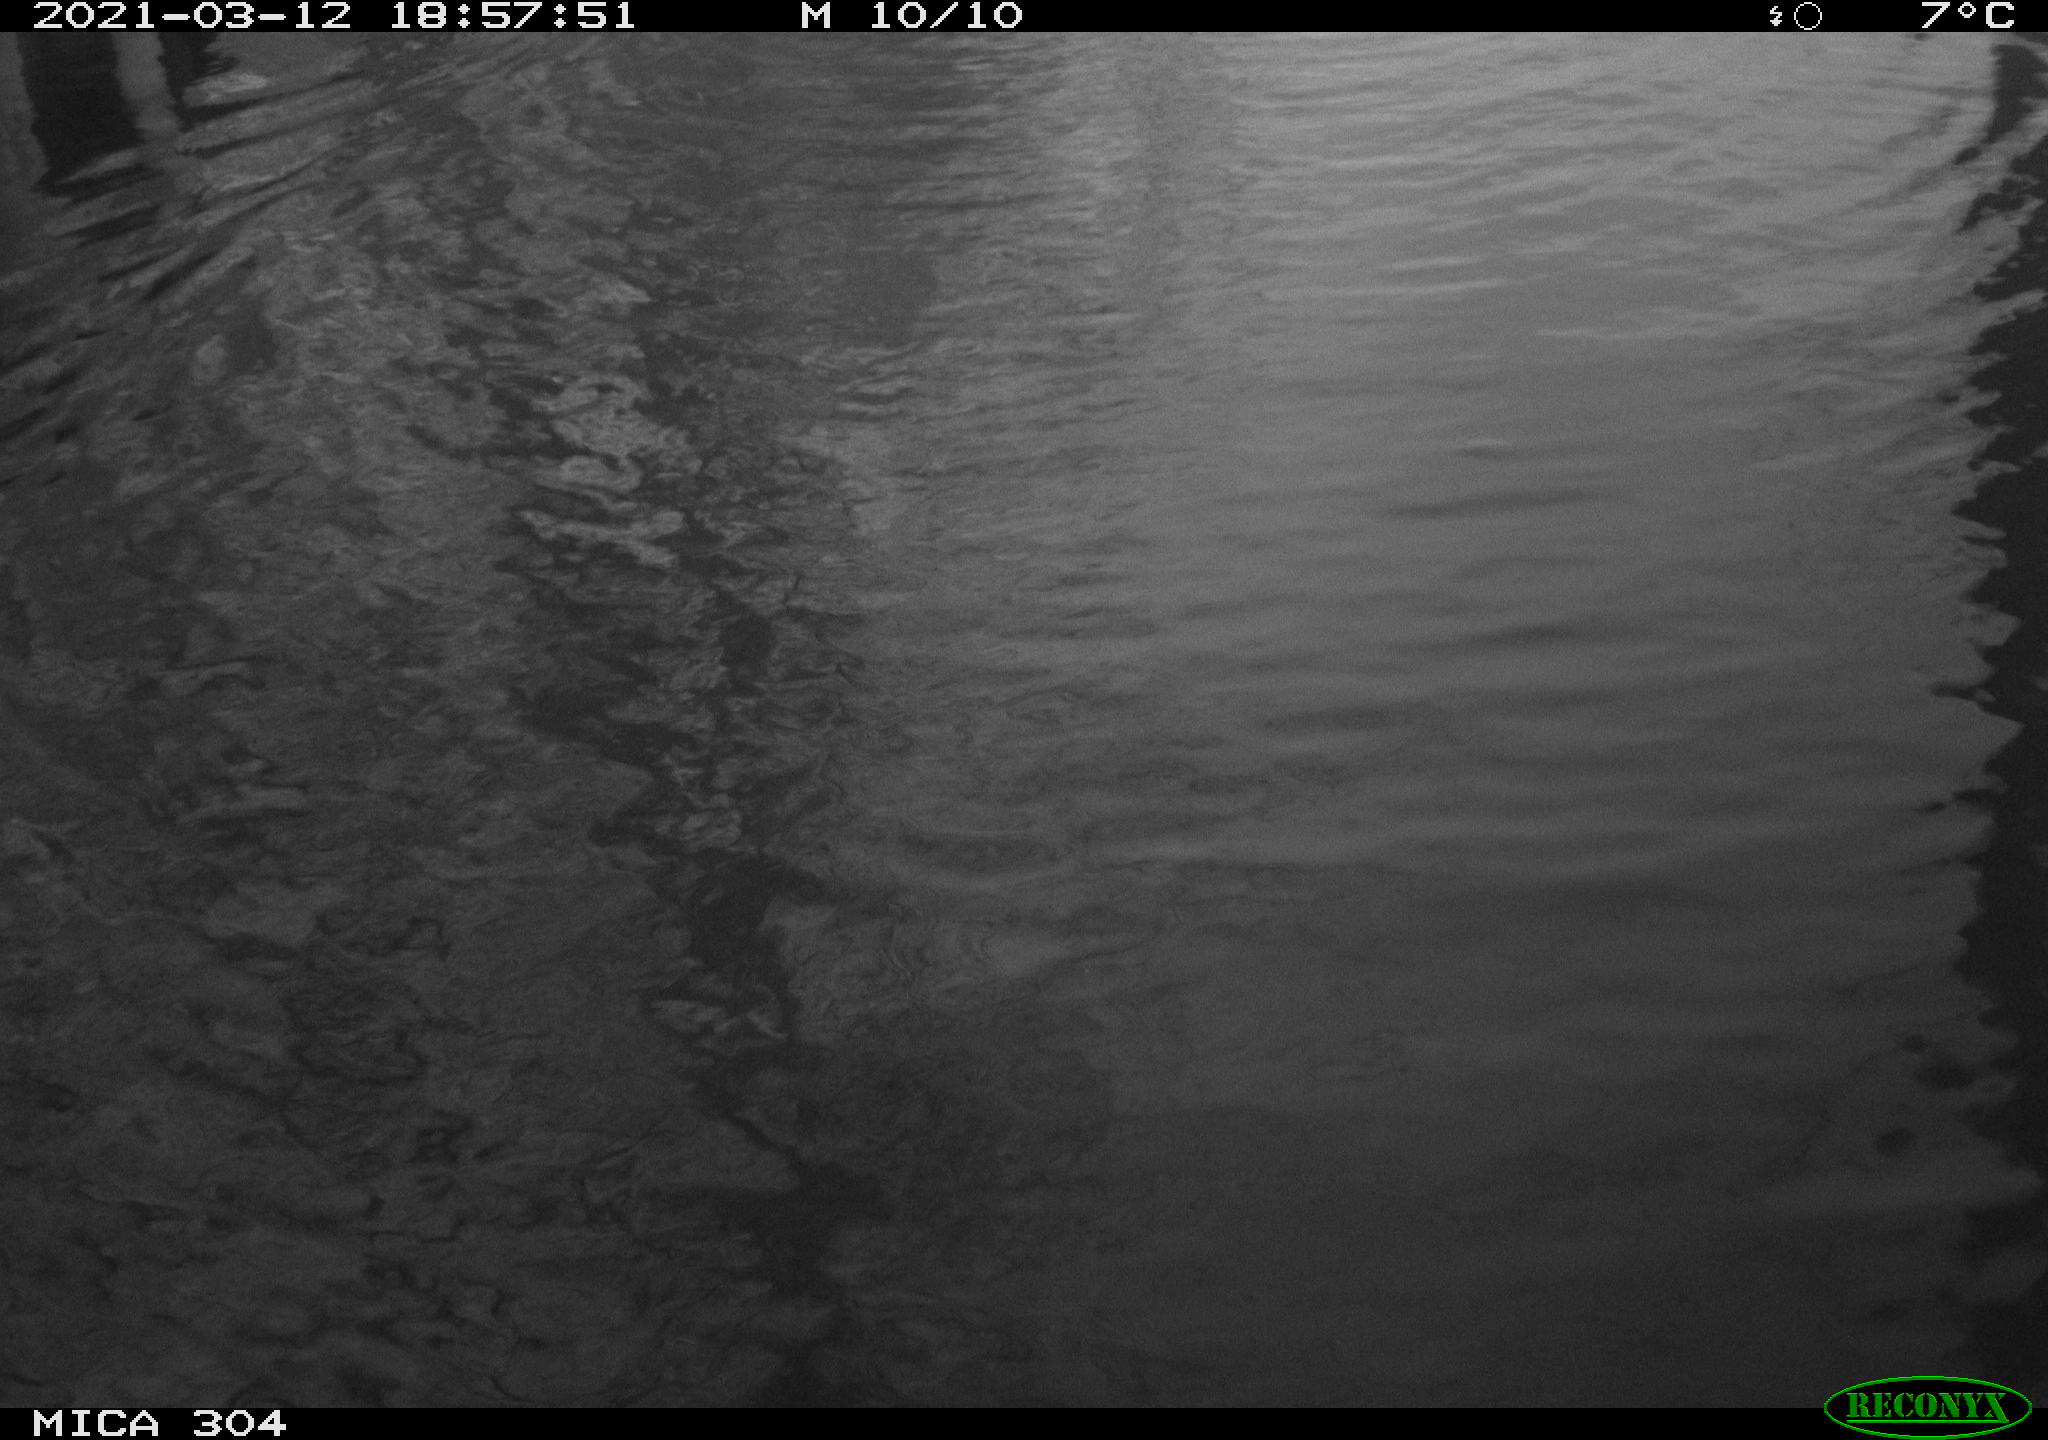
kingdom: Animalia
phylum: Chordata
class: Mammalia
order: Rodentia
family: Cricetidae
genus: Ondatra
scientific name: Ondatra zibethicus
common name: Muskrat
